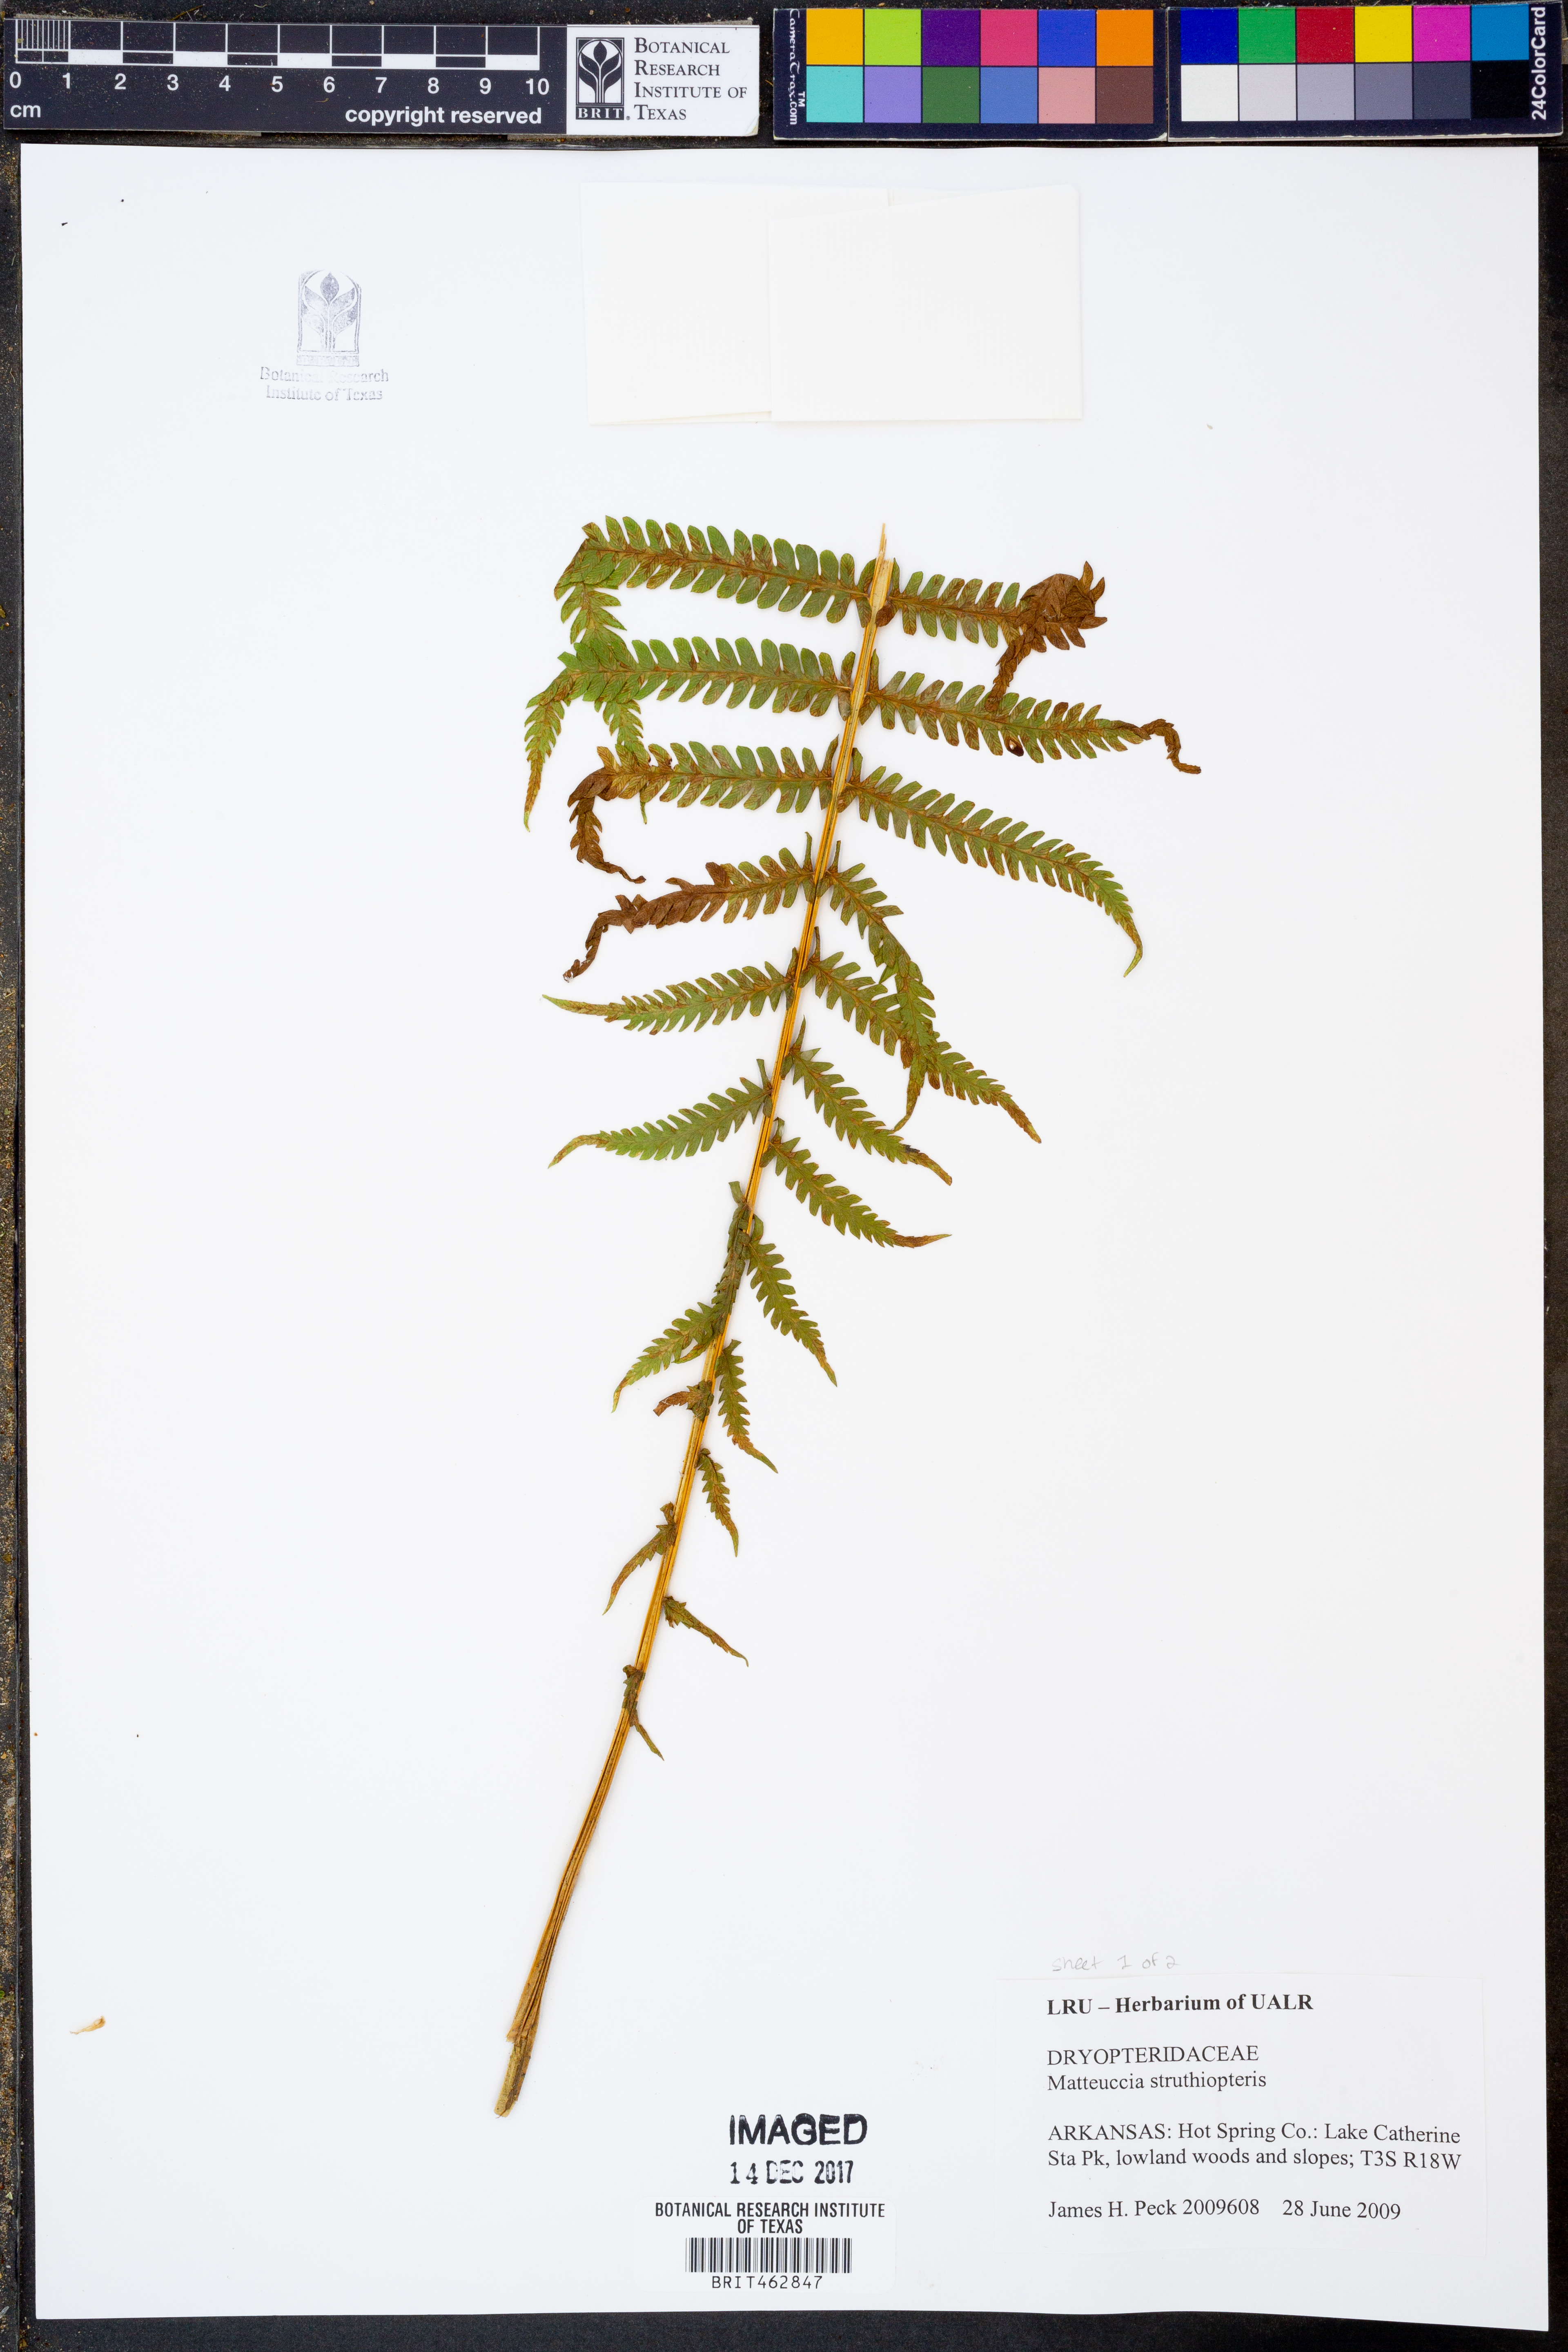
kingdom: Plantae
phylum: Tracheophyta
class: Polypodiopsida
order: Polypodiales
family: Onocleaceae
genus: Matteuccia
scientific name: Matteuccia struthiopteris
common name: Ostrich fern
